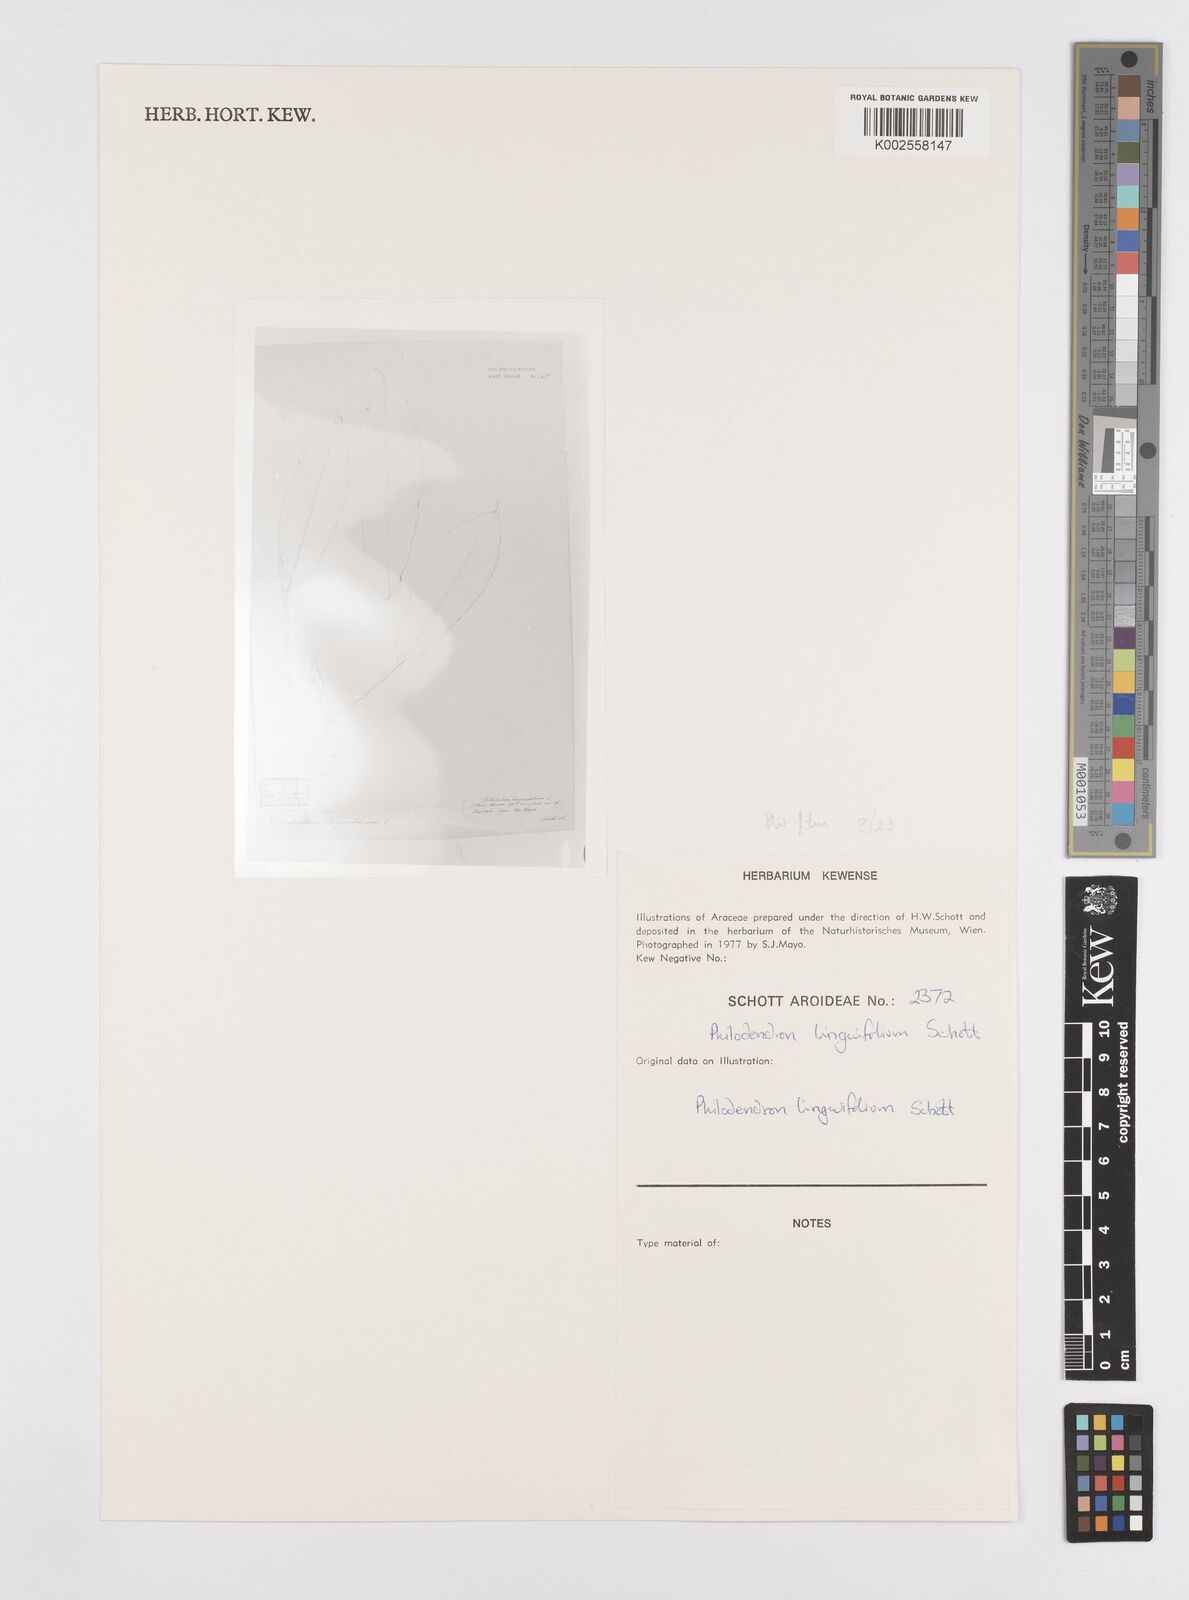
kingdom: Plantae
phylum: Tracheophyta
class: Liliopsida
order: Alismatales
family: Araceae
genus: Philodendron
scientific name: Philodendron linguifolium
